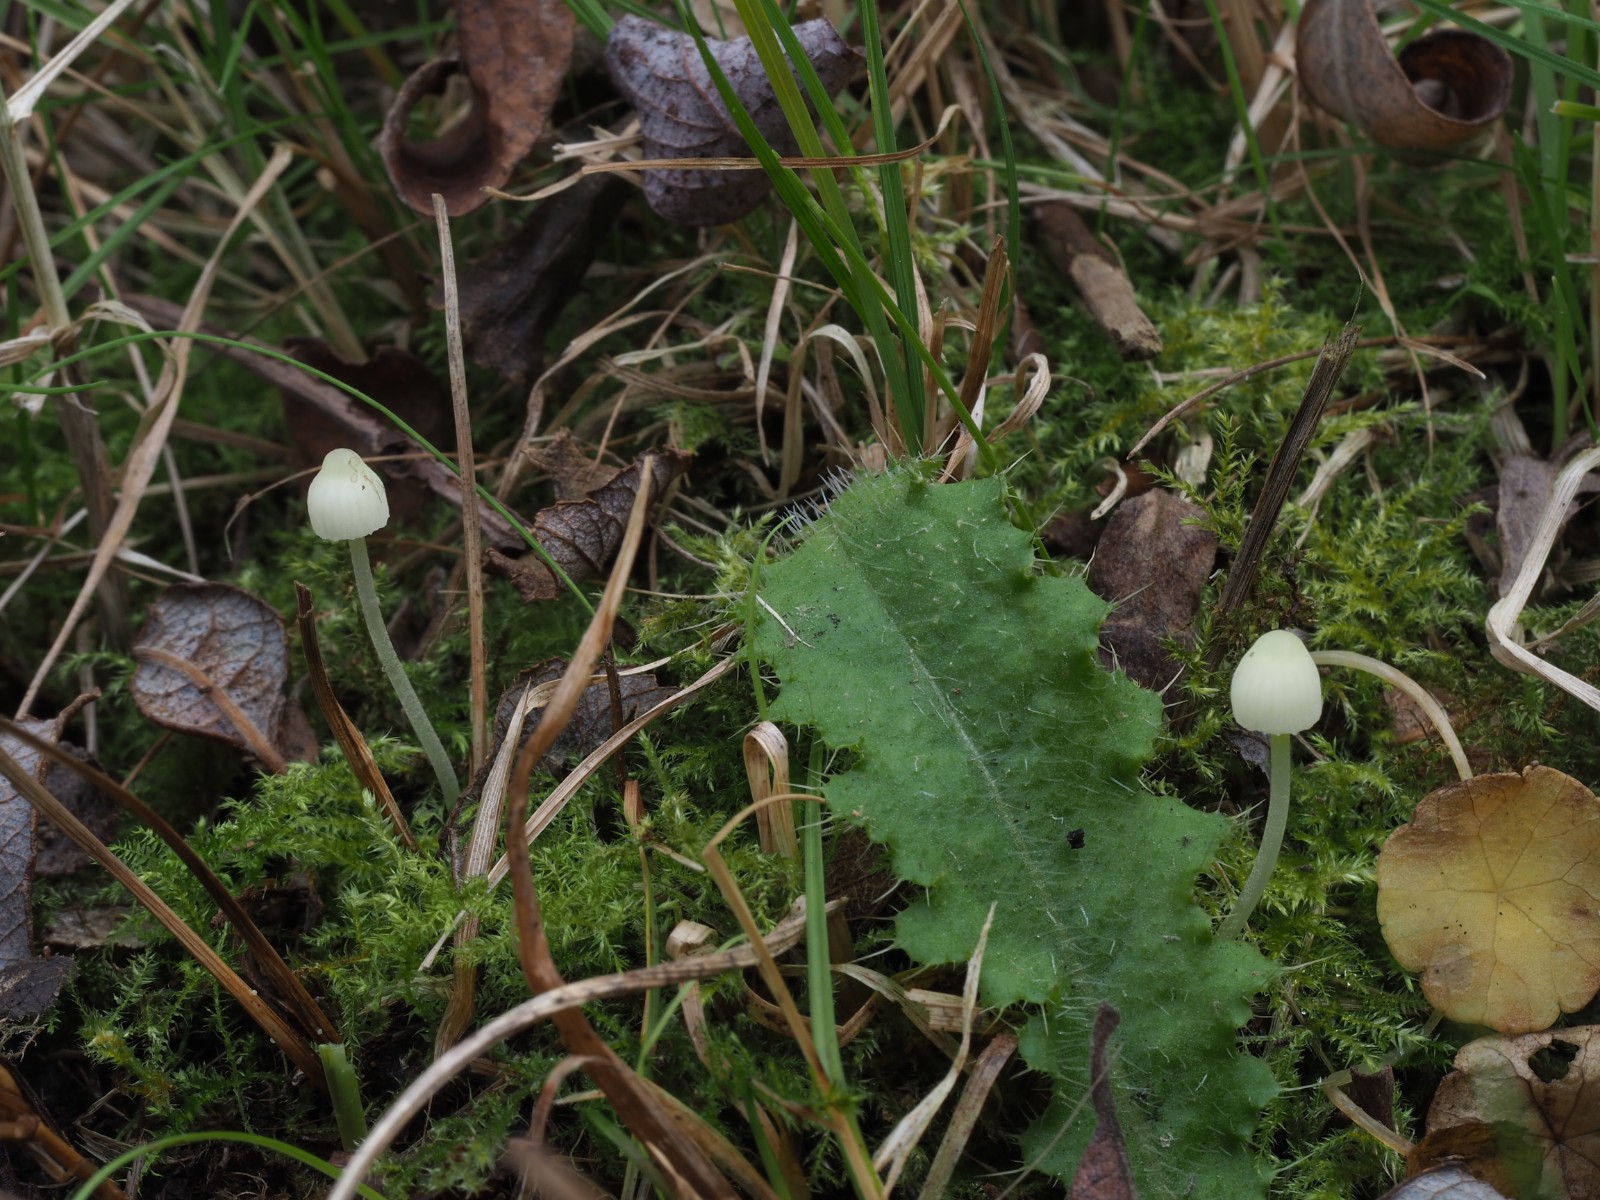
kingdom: Fungi
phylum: Basidiomycota
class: Agaricomycetes
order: Agaricales
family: Mycenaceae
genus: Mycena
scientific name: Mycena epipterygia
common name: gulstokket huesvamp
